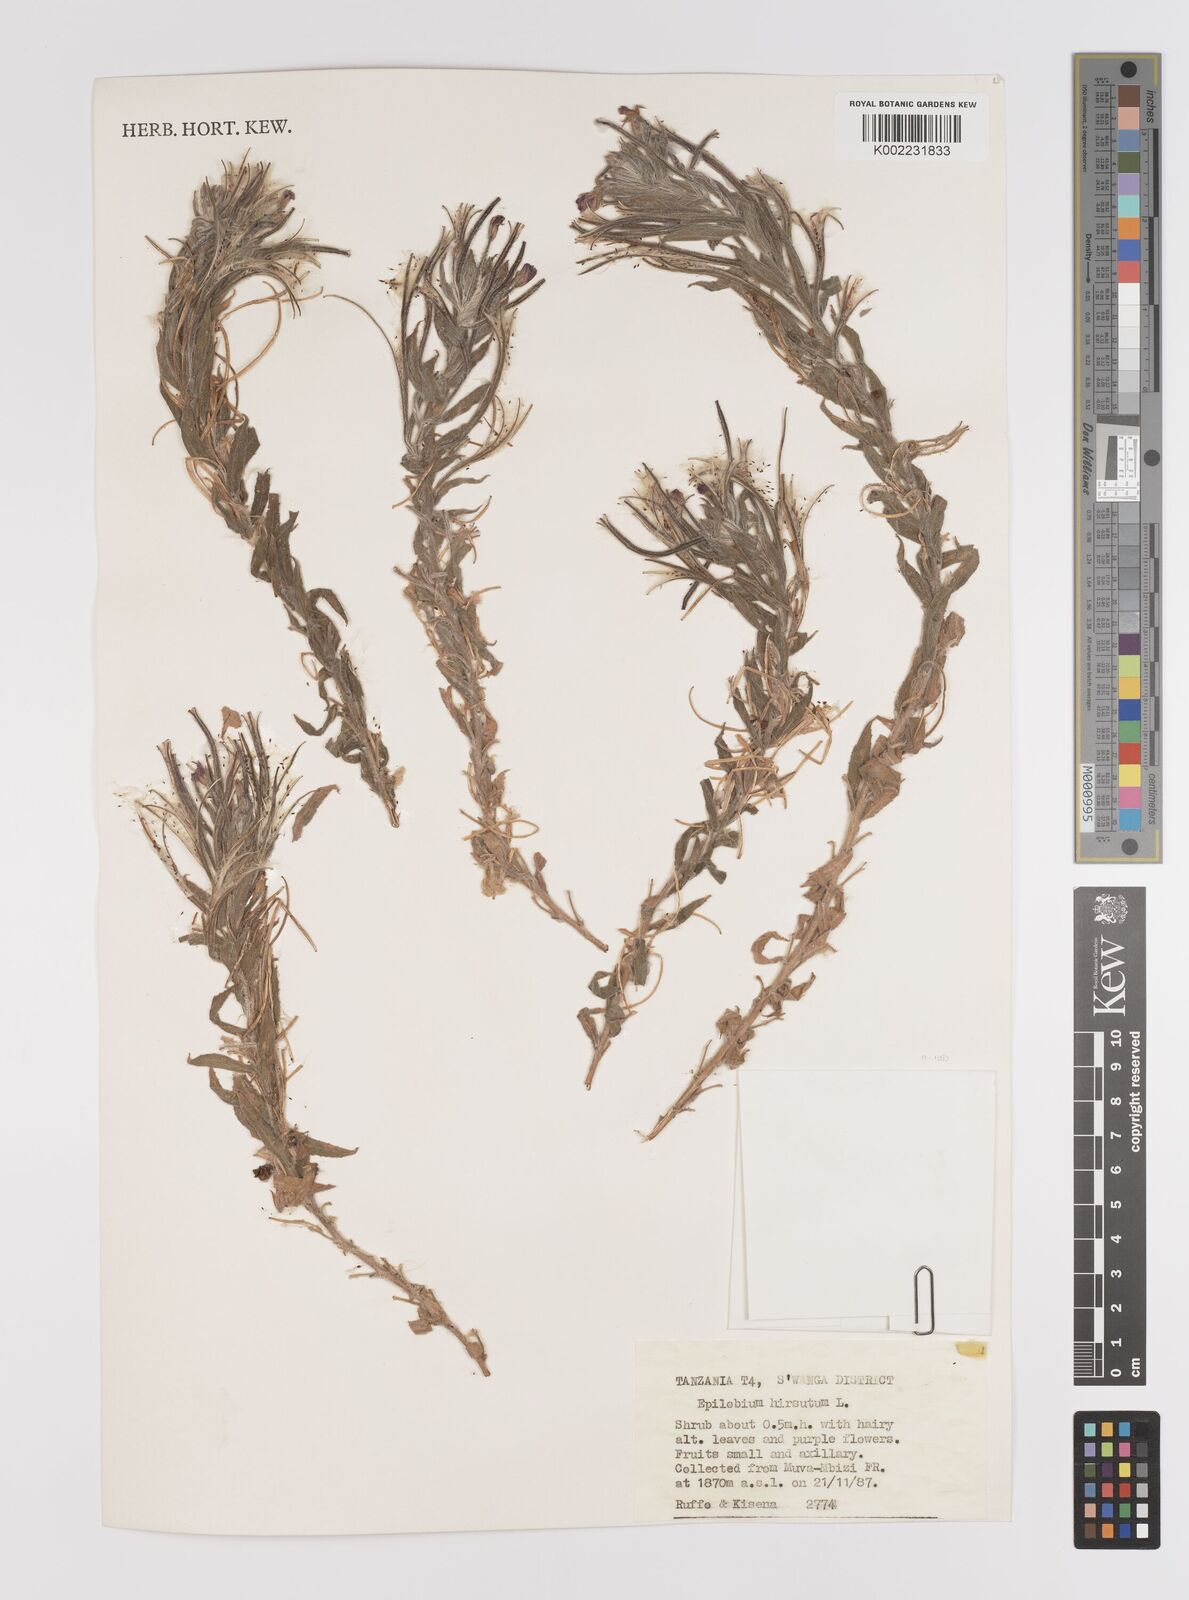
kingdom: Plantae
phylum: Tracheophyta
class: Magnoliopsida
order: Myrtales
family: Onagraceae
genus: Epilobium
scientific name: Epilobium hirsutum
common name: Great willowherb
